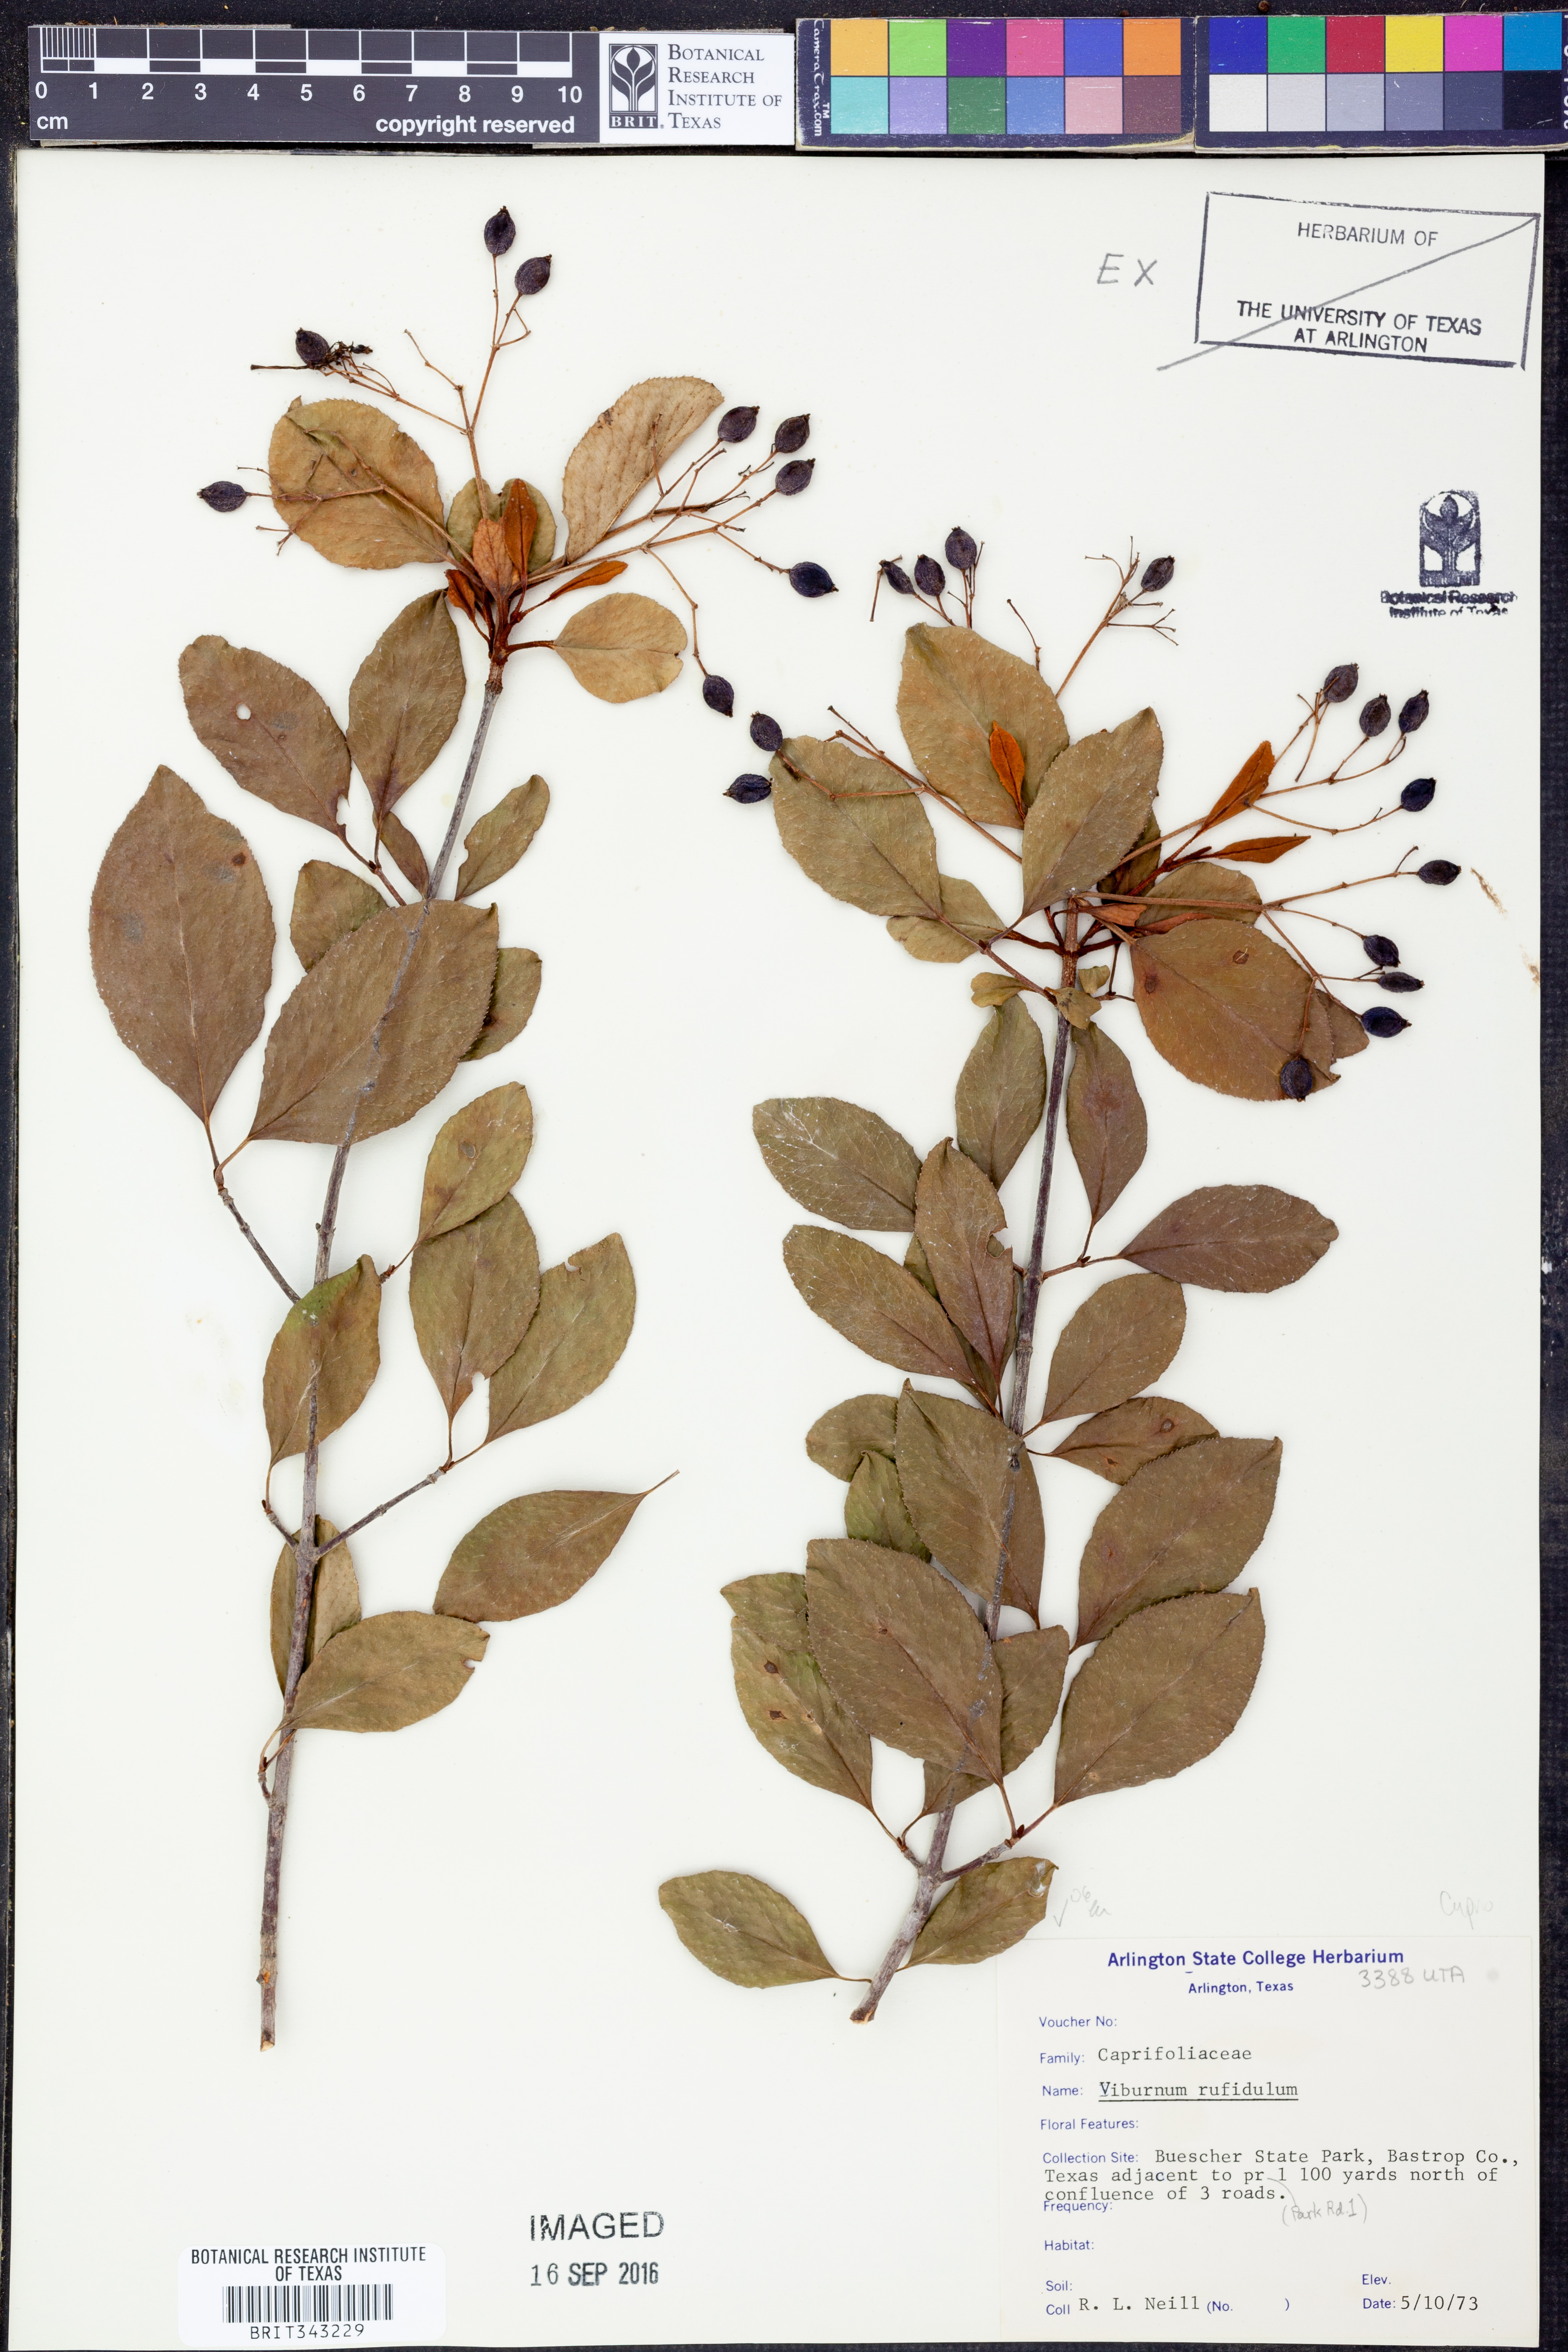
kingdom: Plantae
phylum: Tracheophyta
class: Magnoliopsida
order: Dipsacales
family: Viburnaceae
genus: Viburnum
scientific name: Viburnum rufidulum
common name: Blue haw
